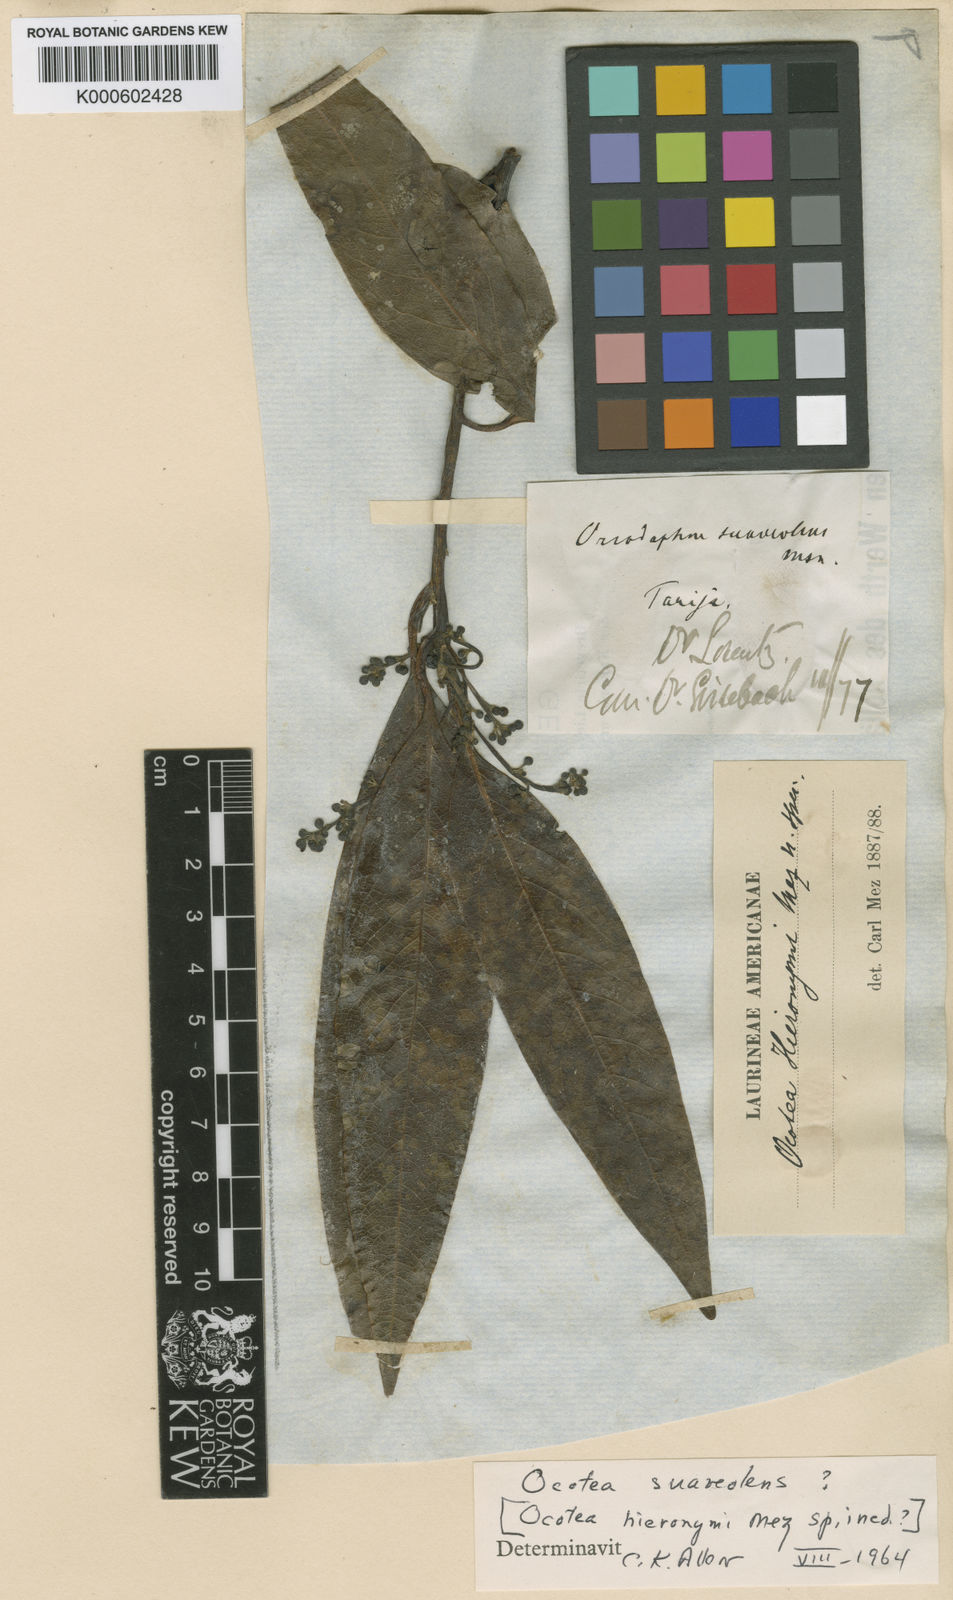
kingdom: Plantae
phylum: Tracheophyta
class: Magnoliopsida
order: Laurales
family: Lauraceae
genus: Ocotea
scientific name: Ocotea
